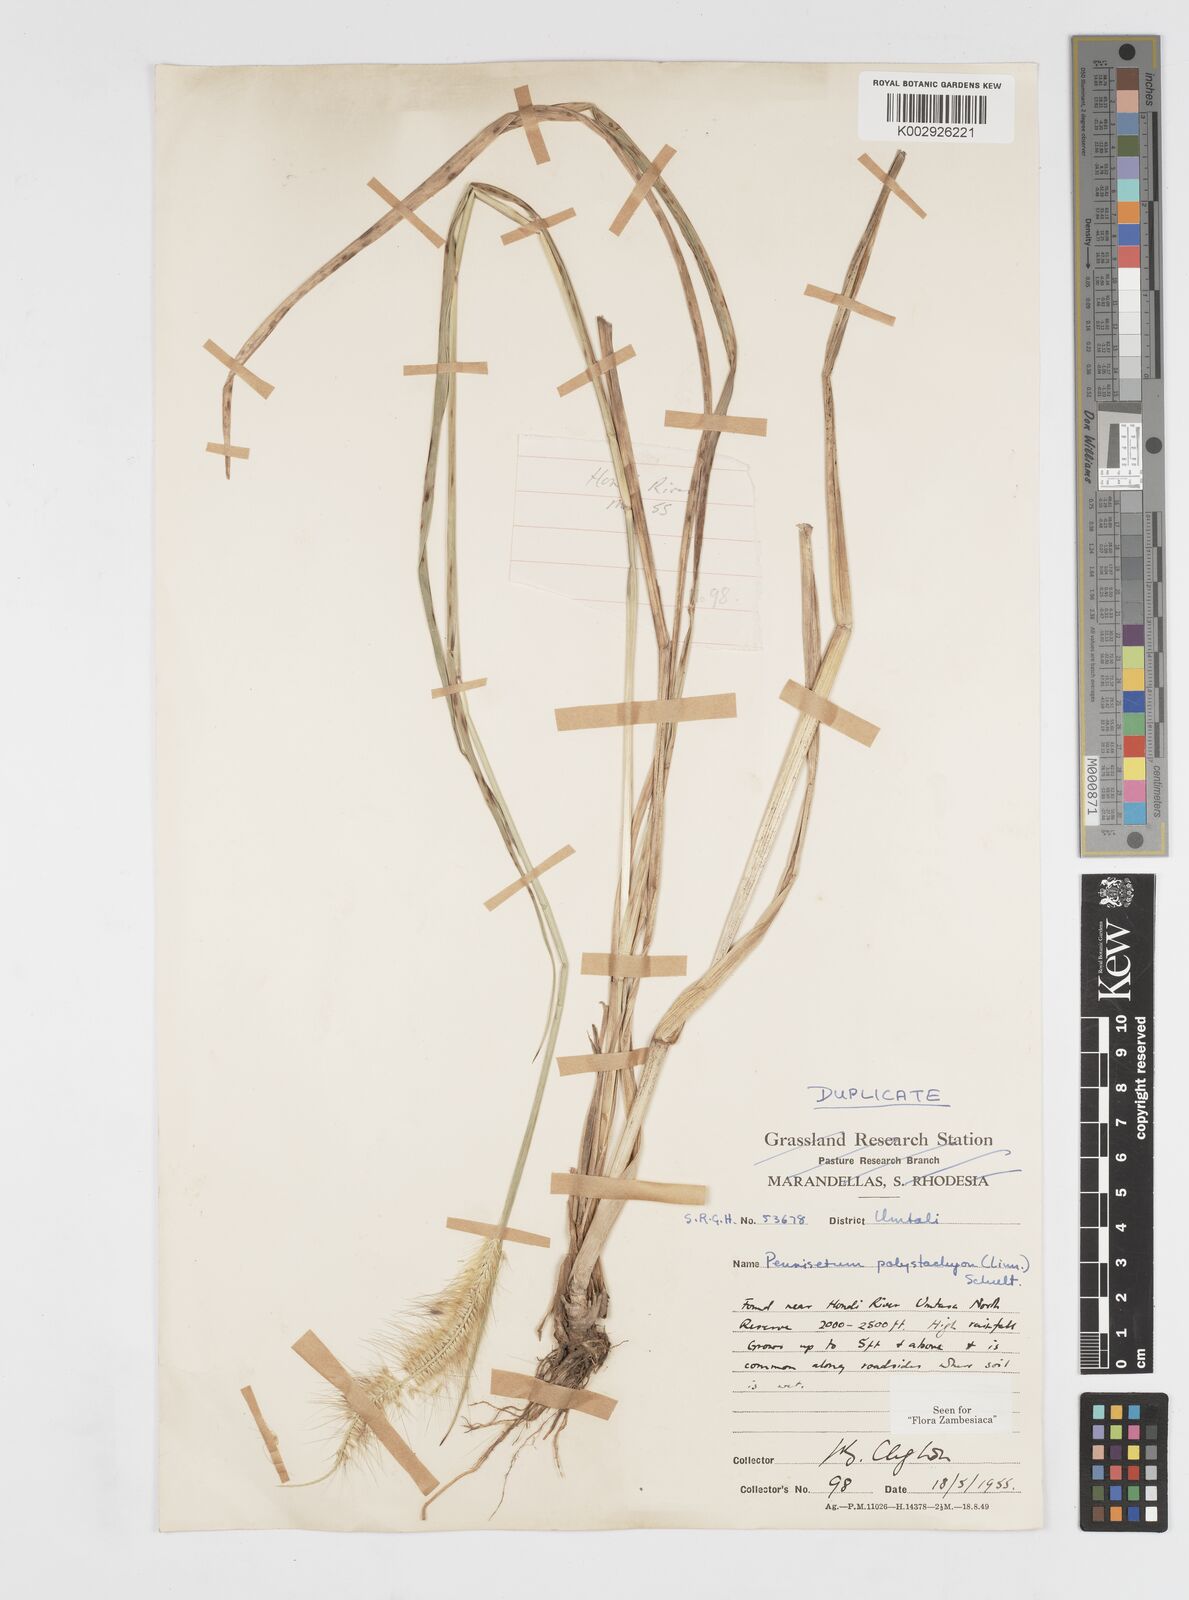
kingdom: Plantae
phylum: Tracheophyta
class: Liliopsida
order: Poales
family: Poaceae
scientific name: Poaceae
